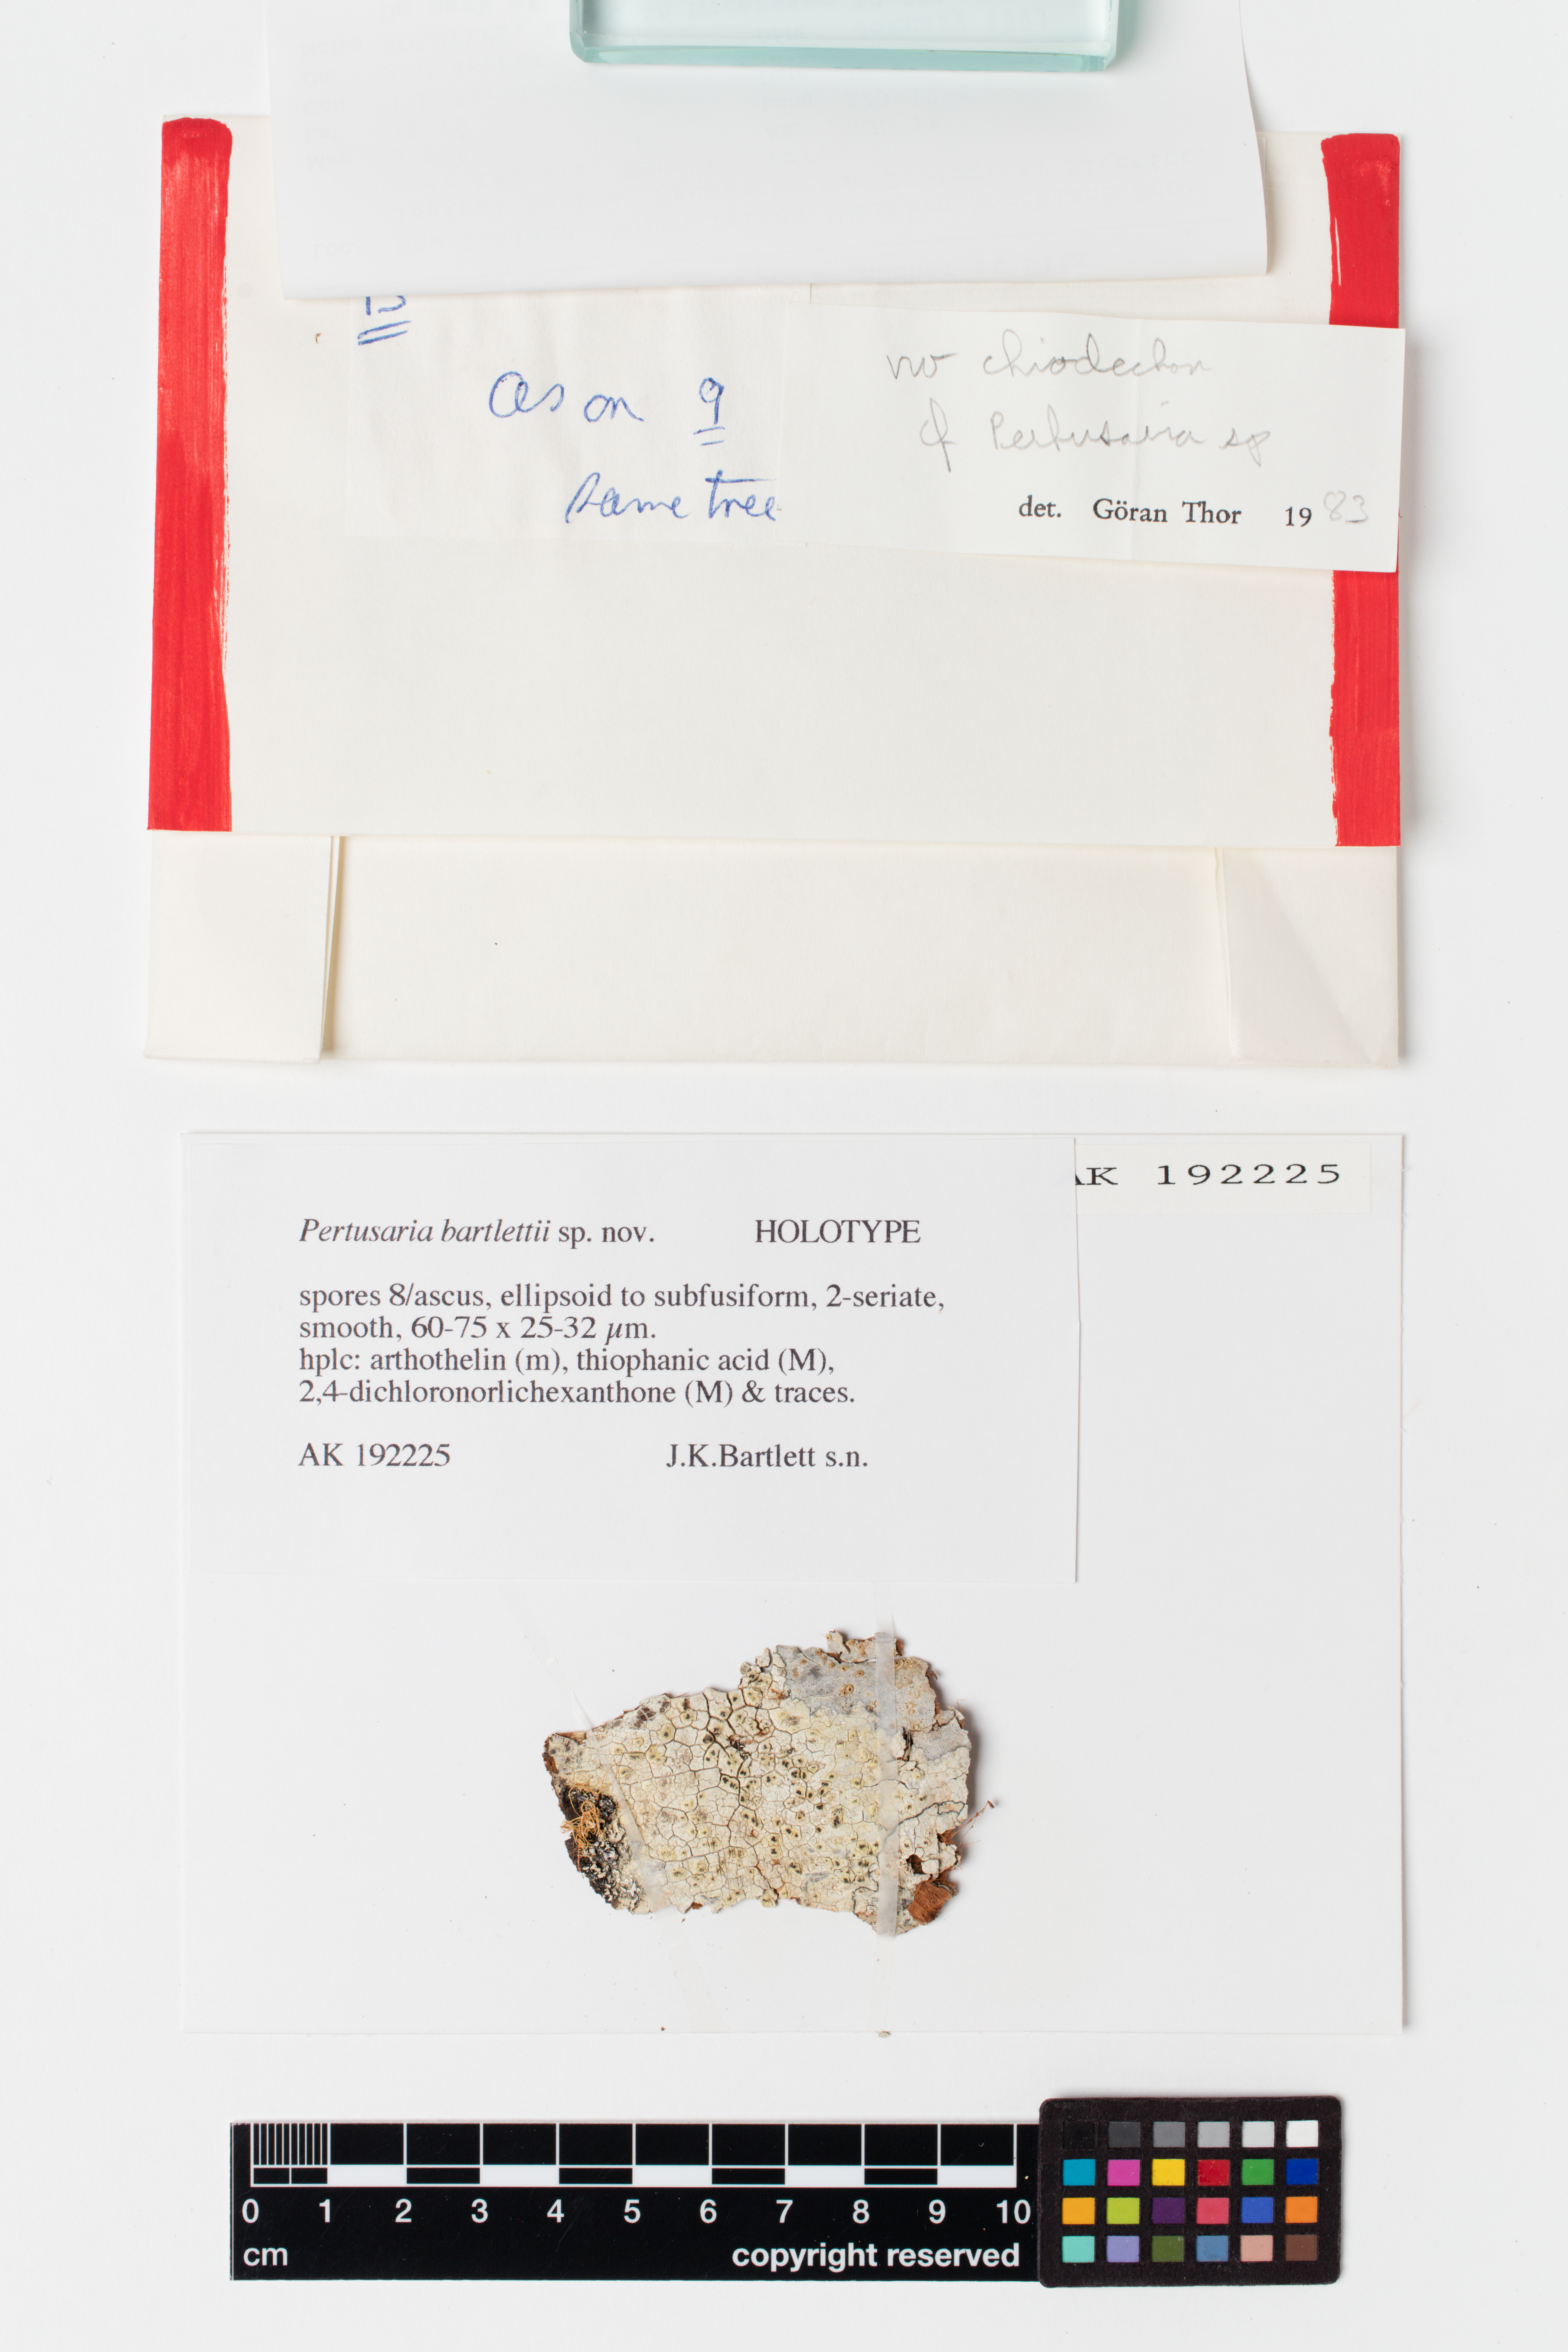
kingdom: Fungi
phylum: Ascomycota
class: Lecanoromycetes
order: Pertusariales
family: Pertusariaceae
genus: Pertusaria
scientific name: Pertusaria bartletii
